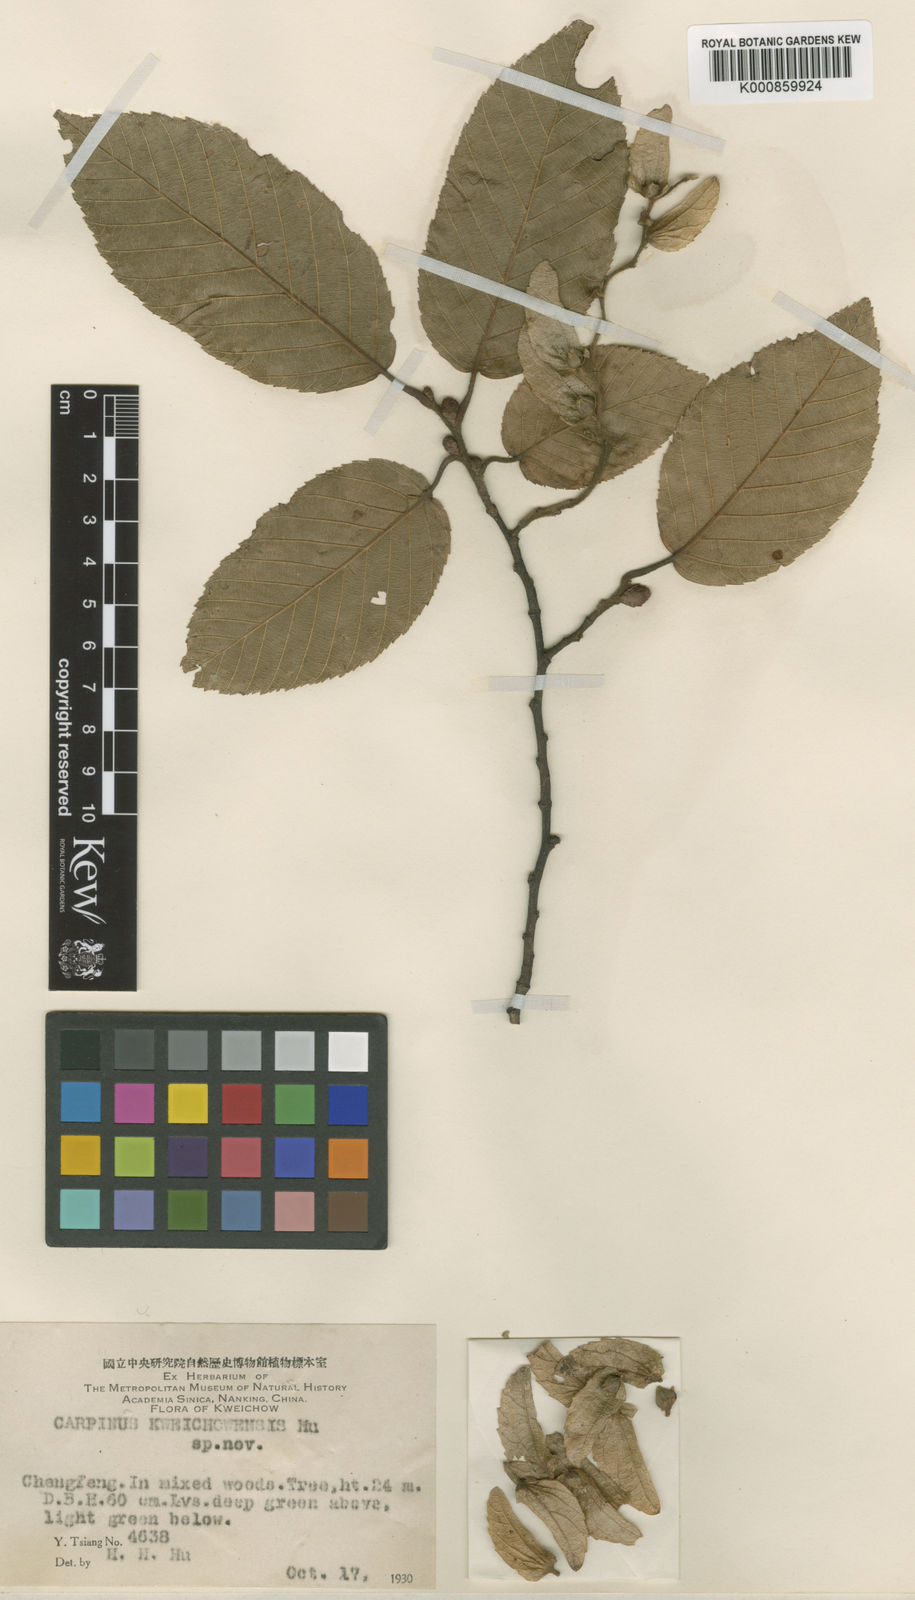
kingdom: Plantae
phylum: Tracheophyta
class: Magnoliopsida
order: Fagales
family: Betulaceae
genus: Carpinus
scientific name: Carpinus kweichowensis
